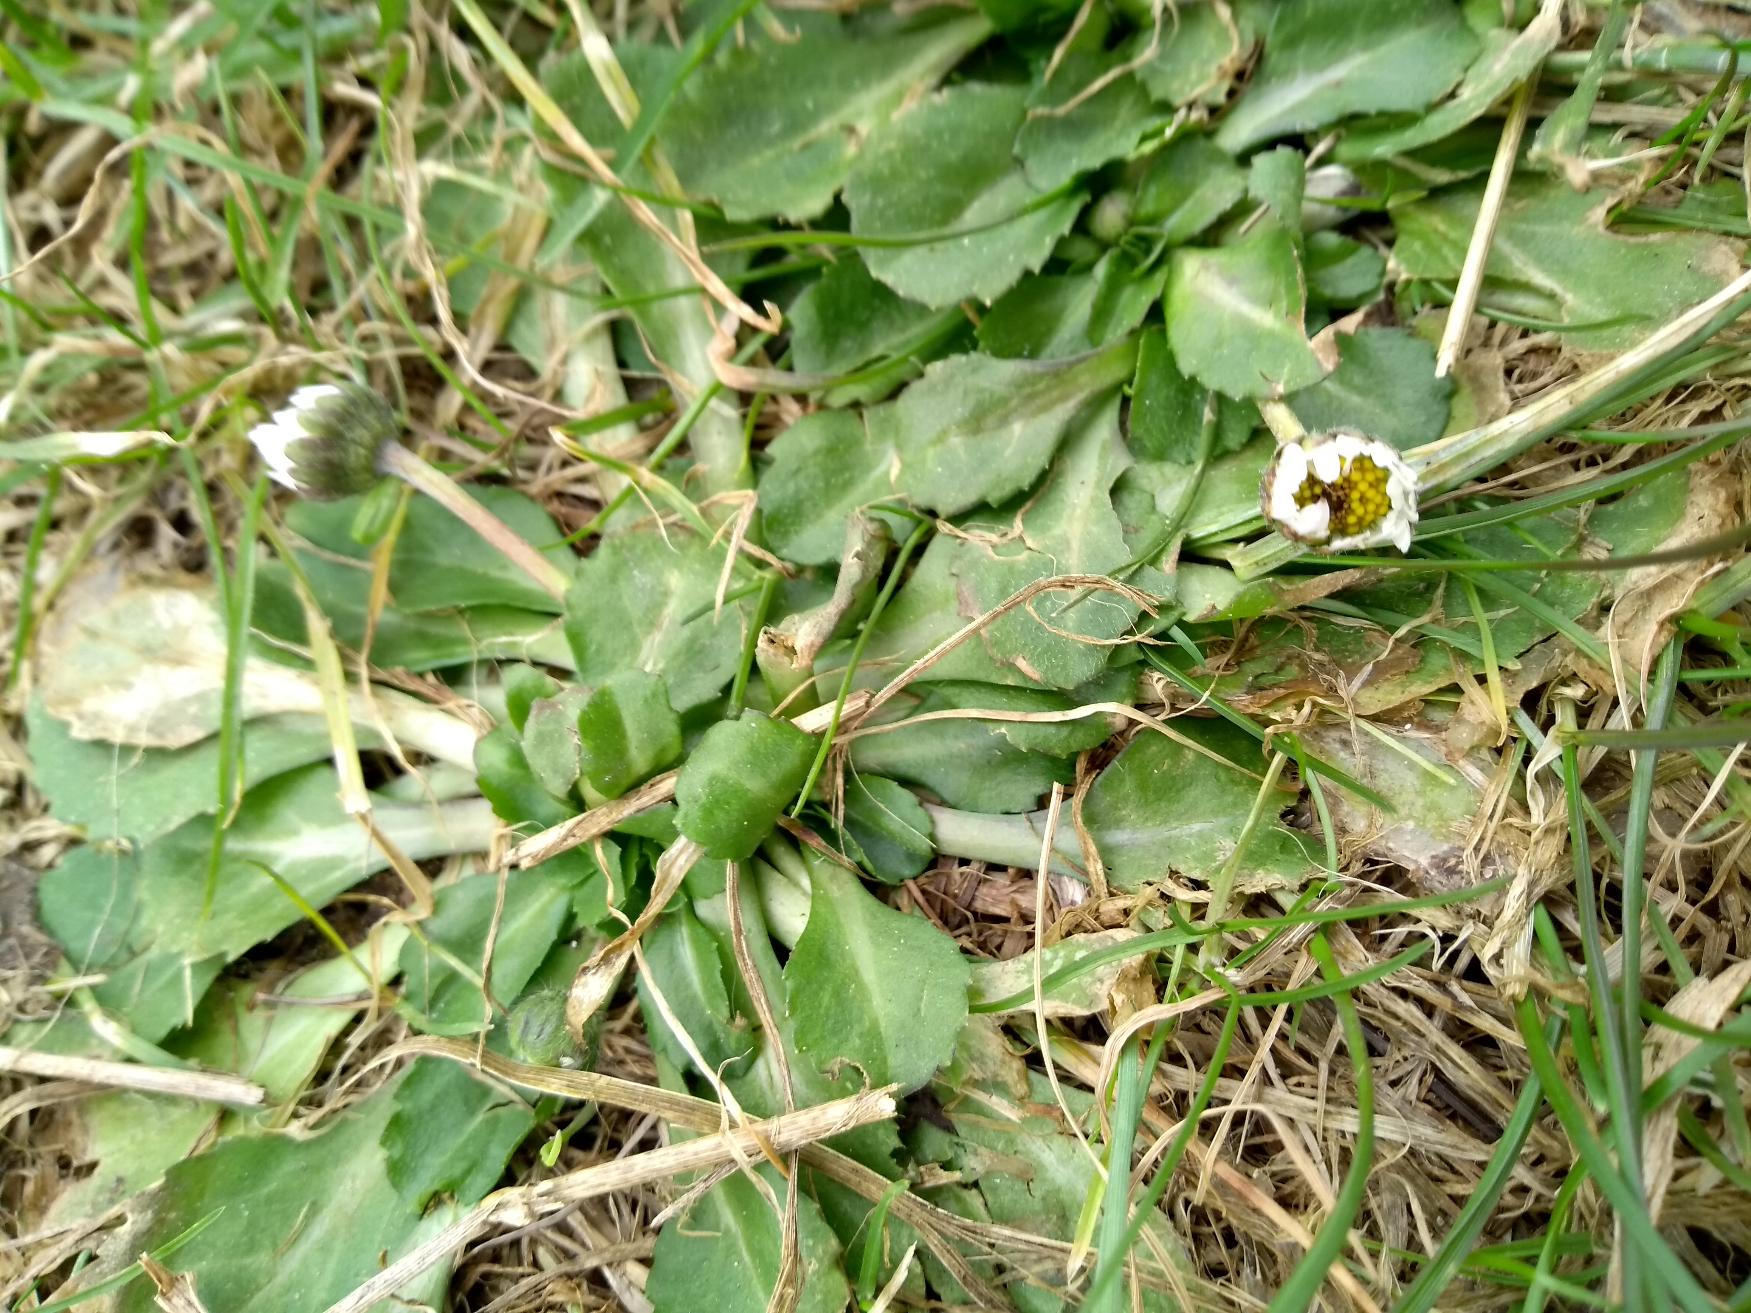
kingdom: Plantae
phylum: Tracheophyta
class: Magnoliopsida
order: Asterales
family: Asteraceae
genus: Bellis
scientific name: Bellis perennis
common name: Tusindfryd
